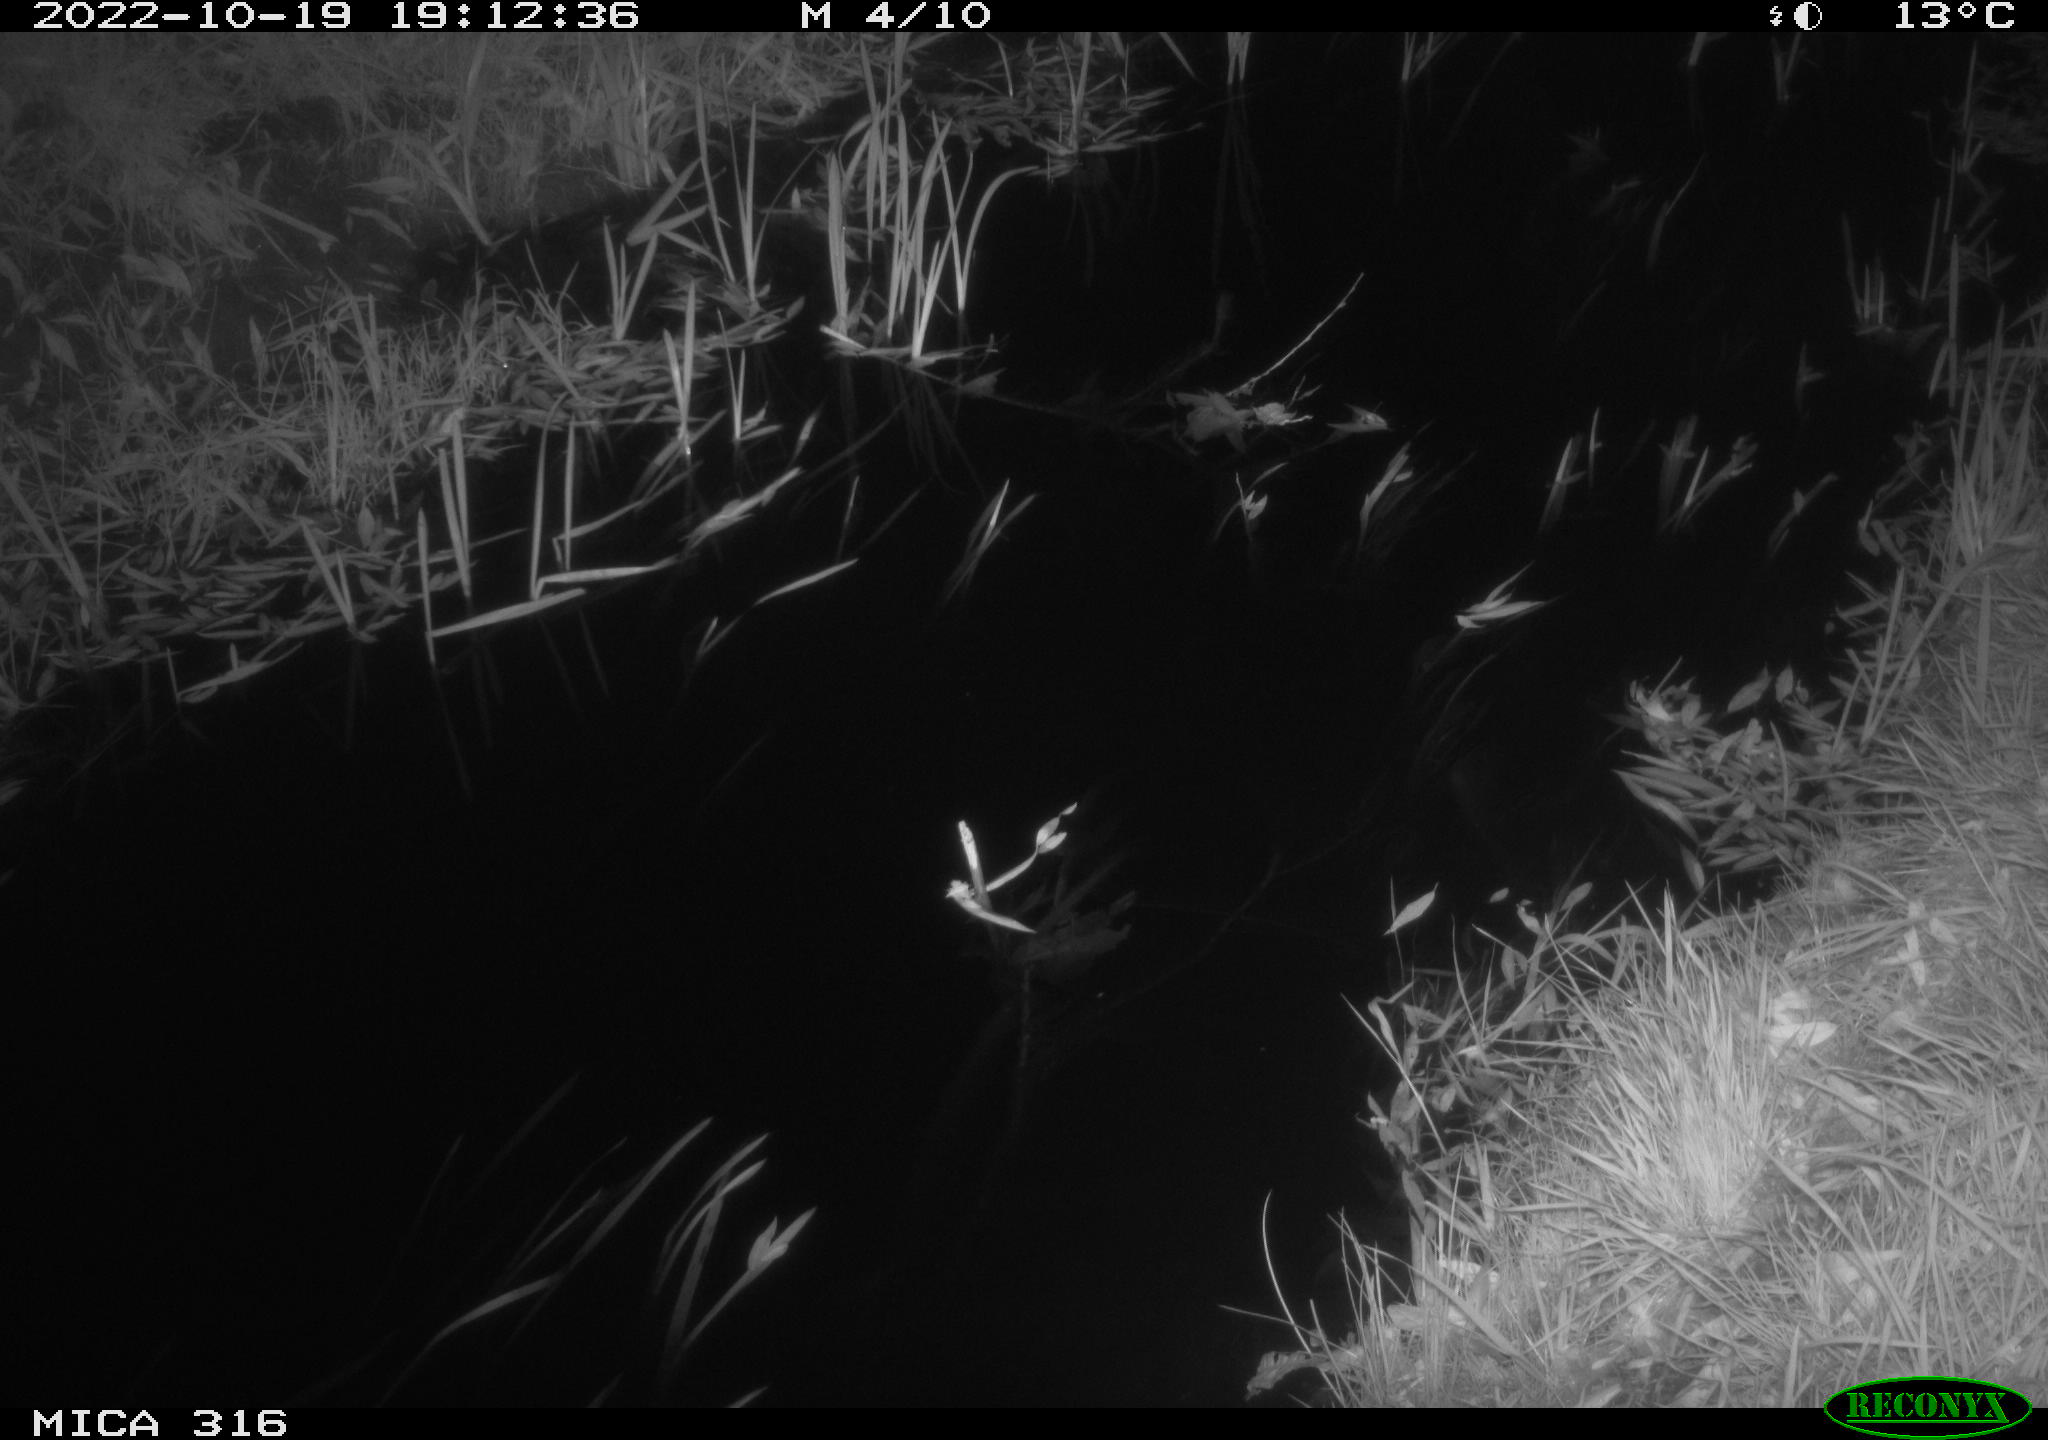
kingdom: Animalia
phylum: Chordata
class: Mammalia
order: Carnivora
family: Canidae
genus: Vulpes
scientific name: Vulpes vulpes
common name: Red fox
